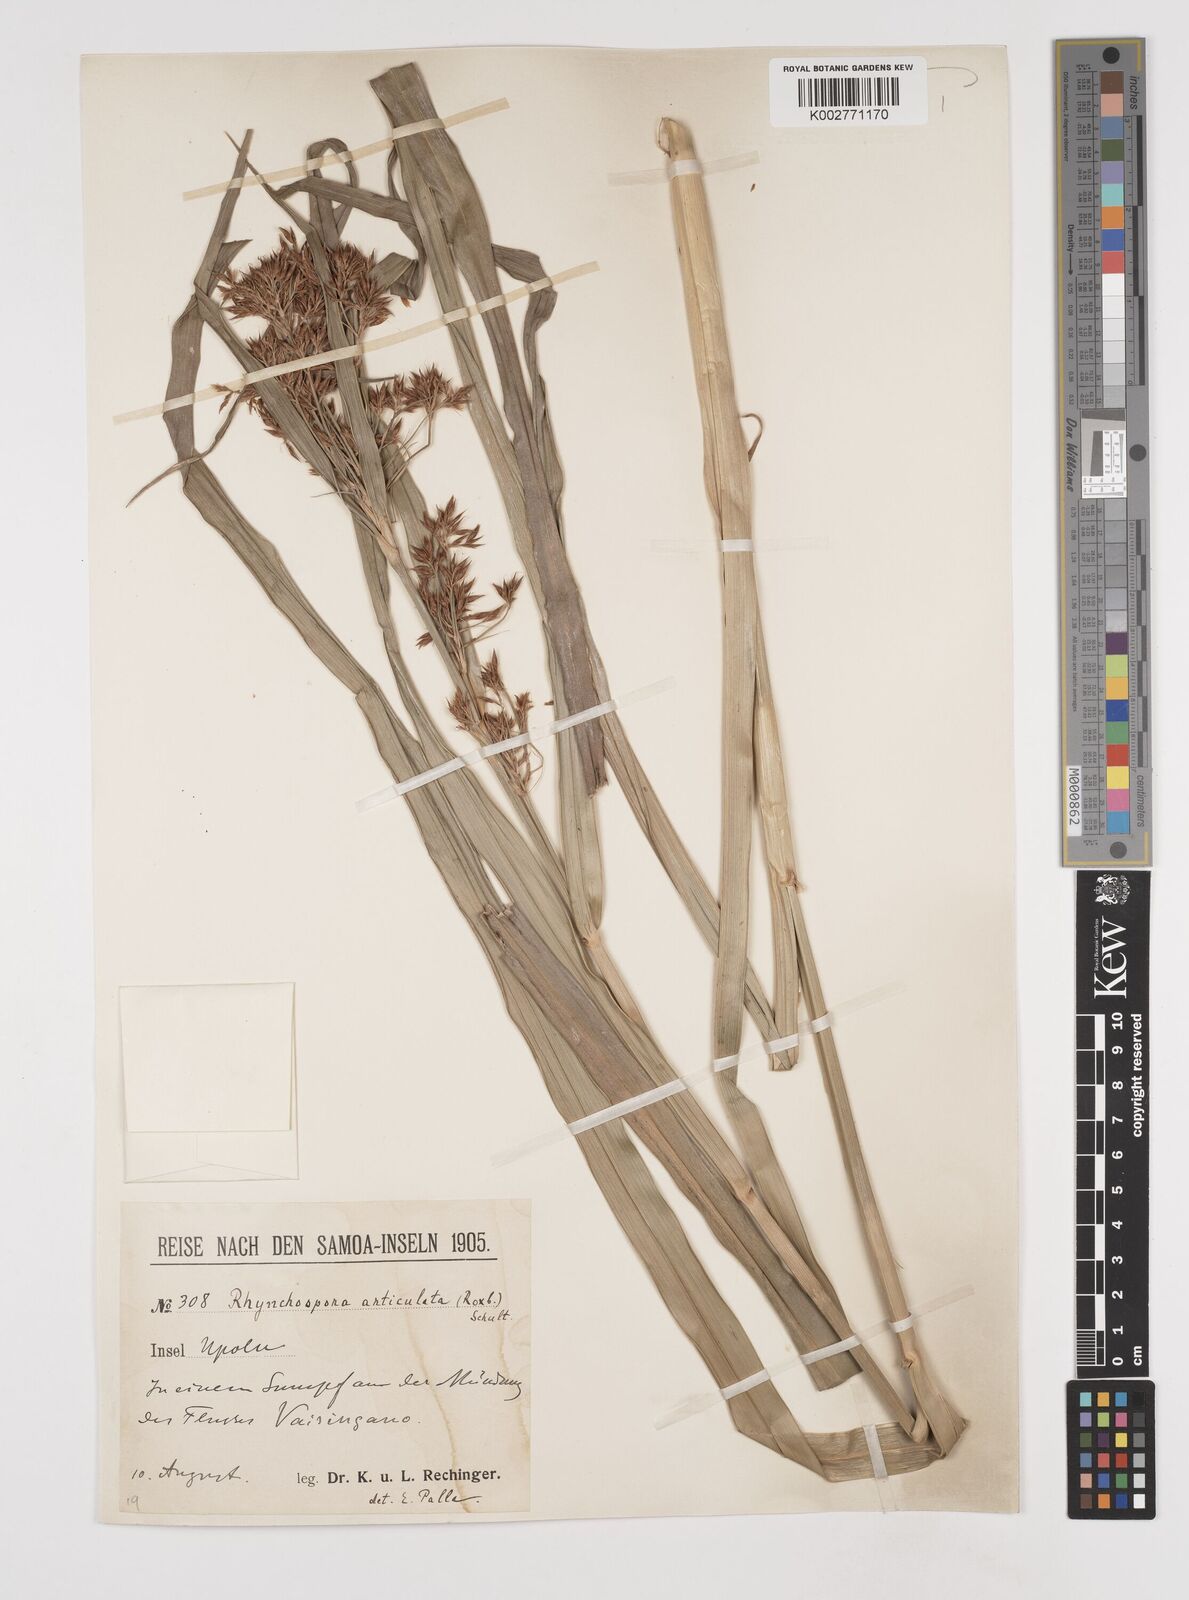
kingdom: Plantae
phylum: Tracheophyta
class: Liliopsida
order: Poales
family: Cyperaceae
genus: Rhynchospora
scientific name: Rhynchospora corymbosa
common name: Golden beak sedge
